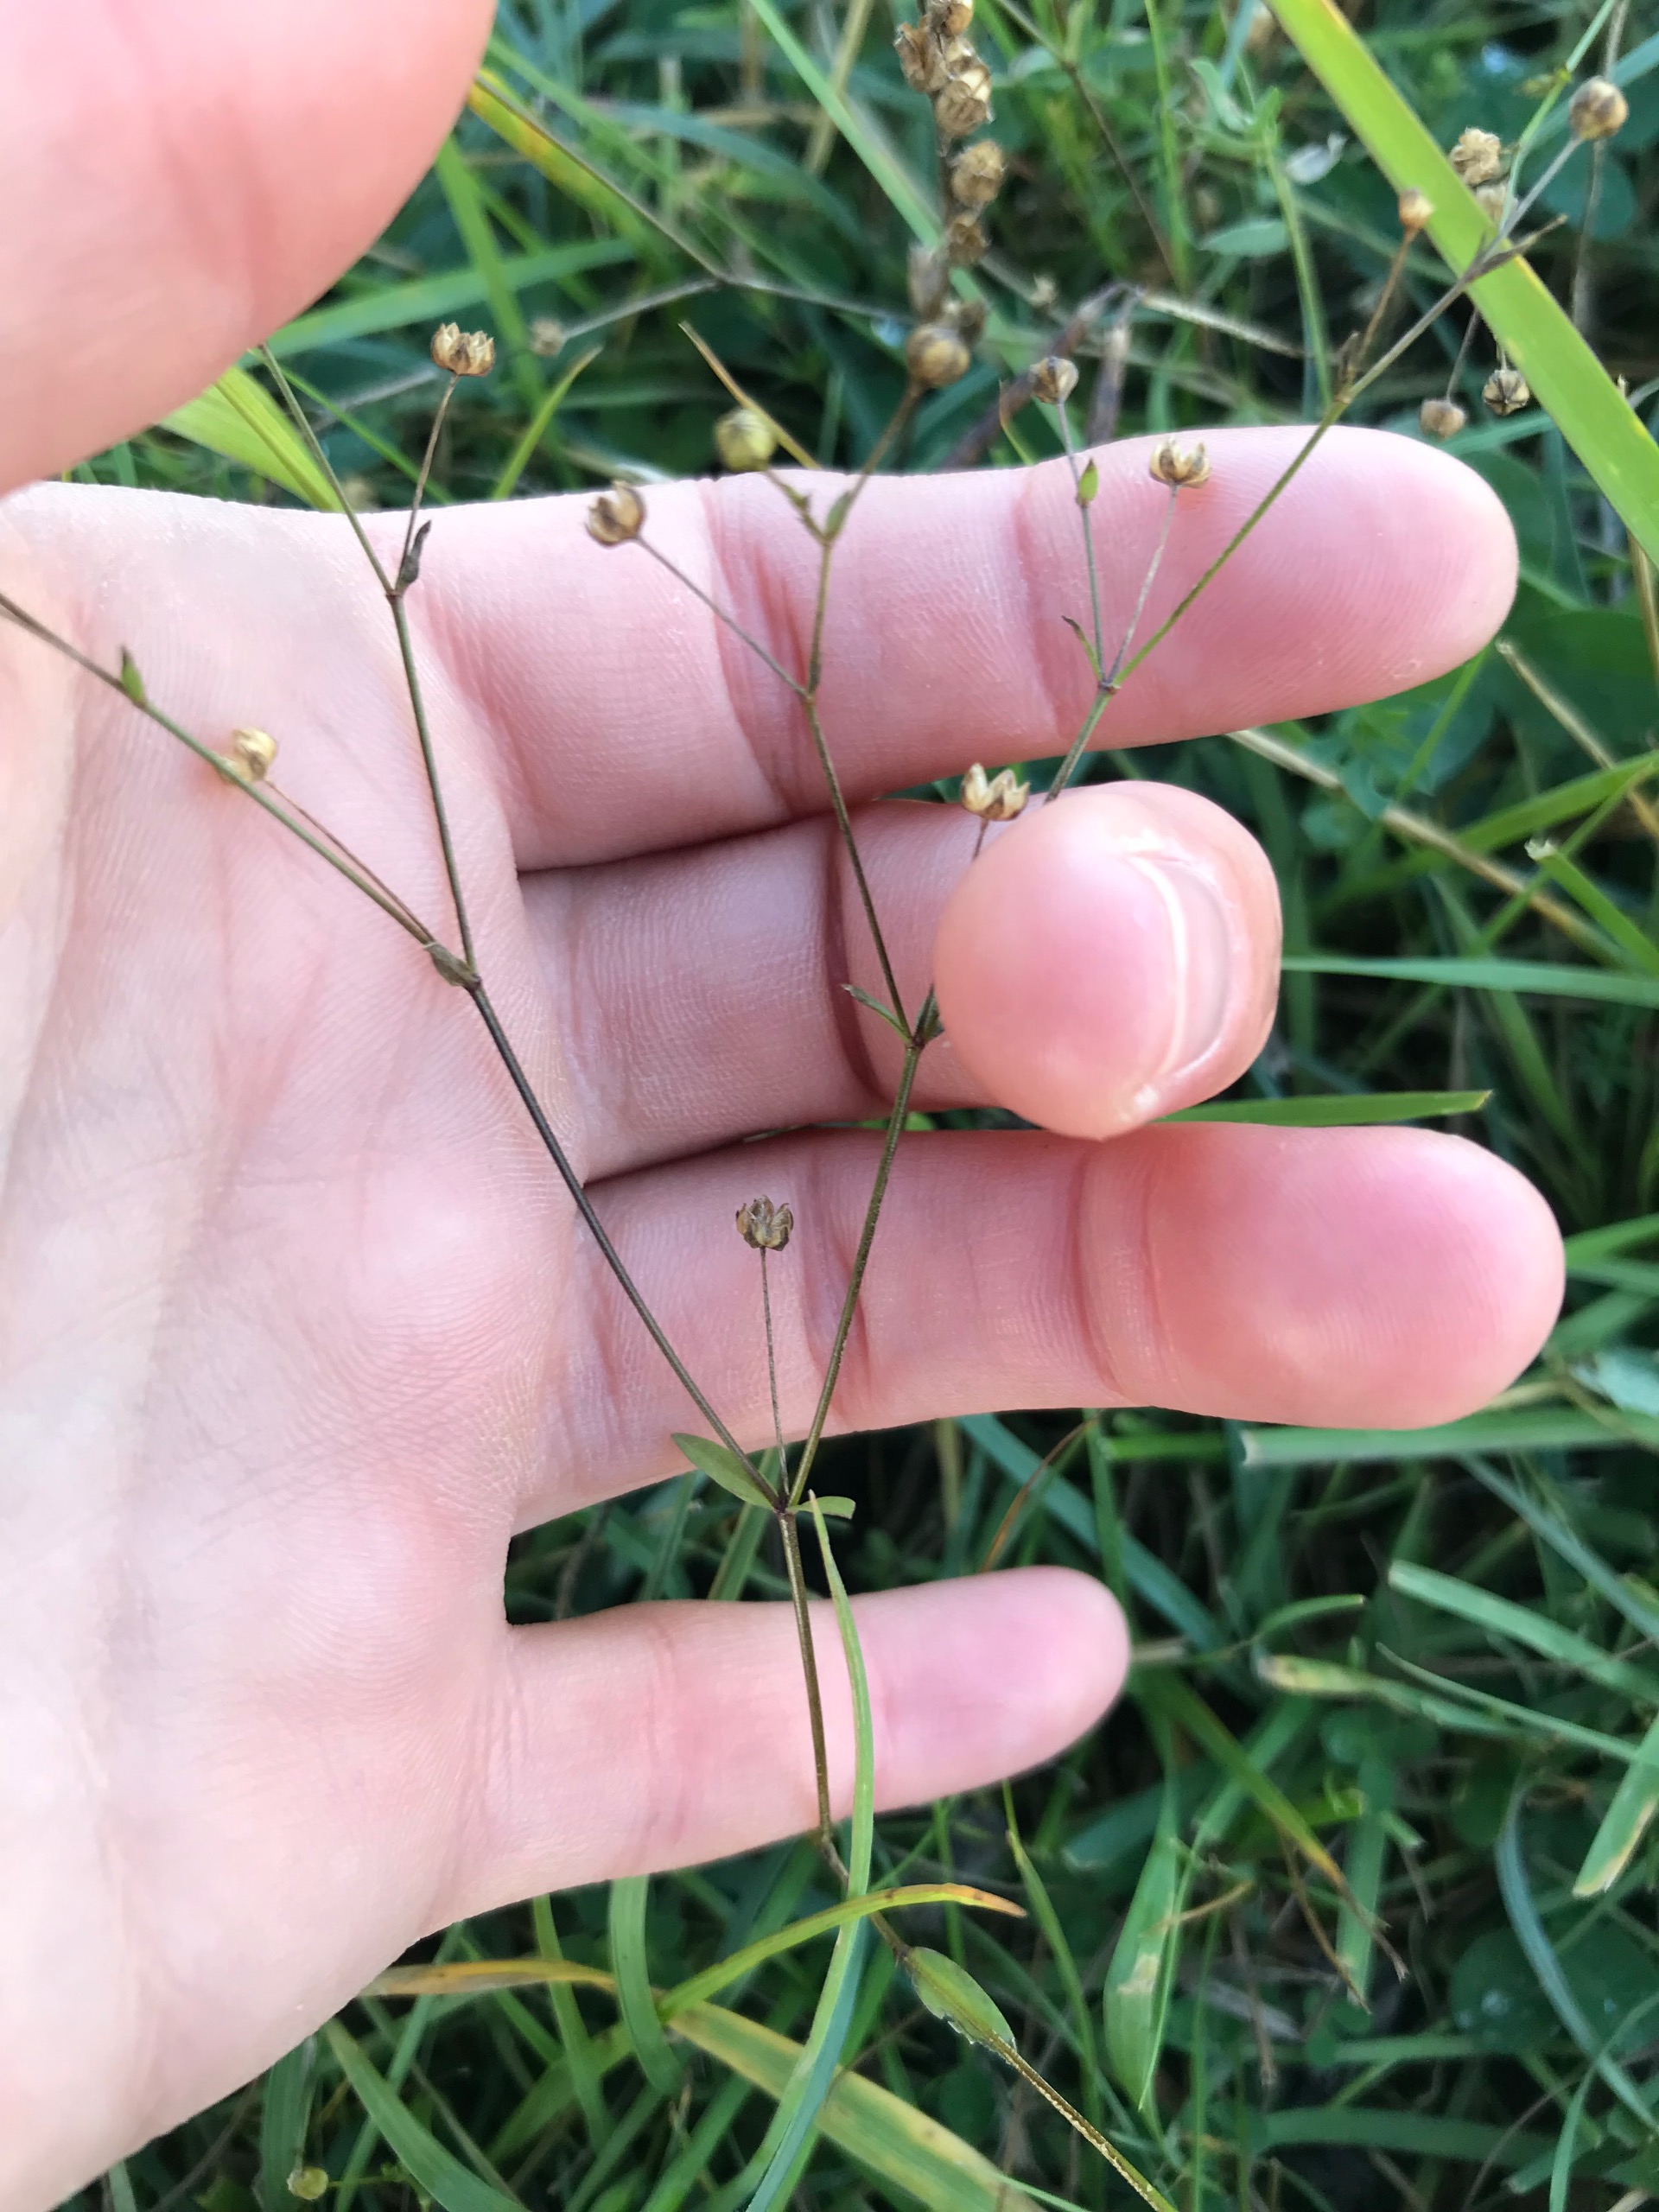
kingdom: Plantae
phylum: Tracheophyta
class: Magnoliopsida
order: Malpighiales
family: Linaceae
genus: Linum
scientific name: Linum catharticum
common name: Vild hør
